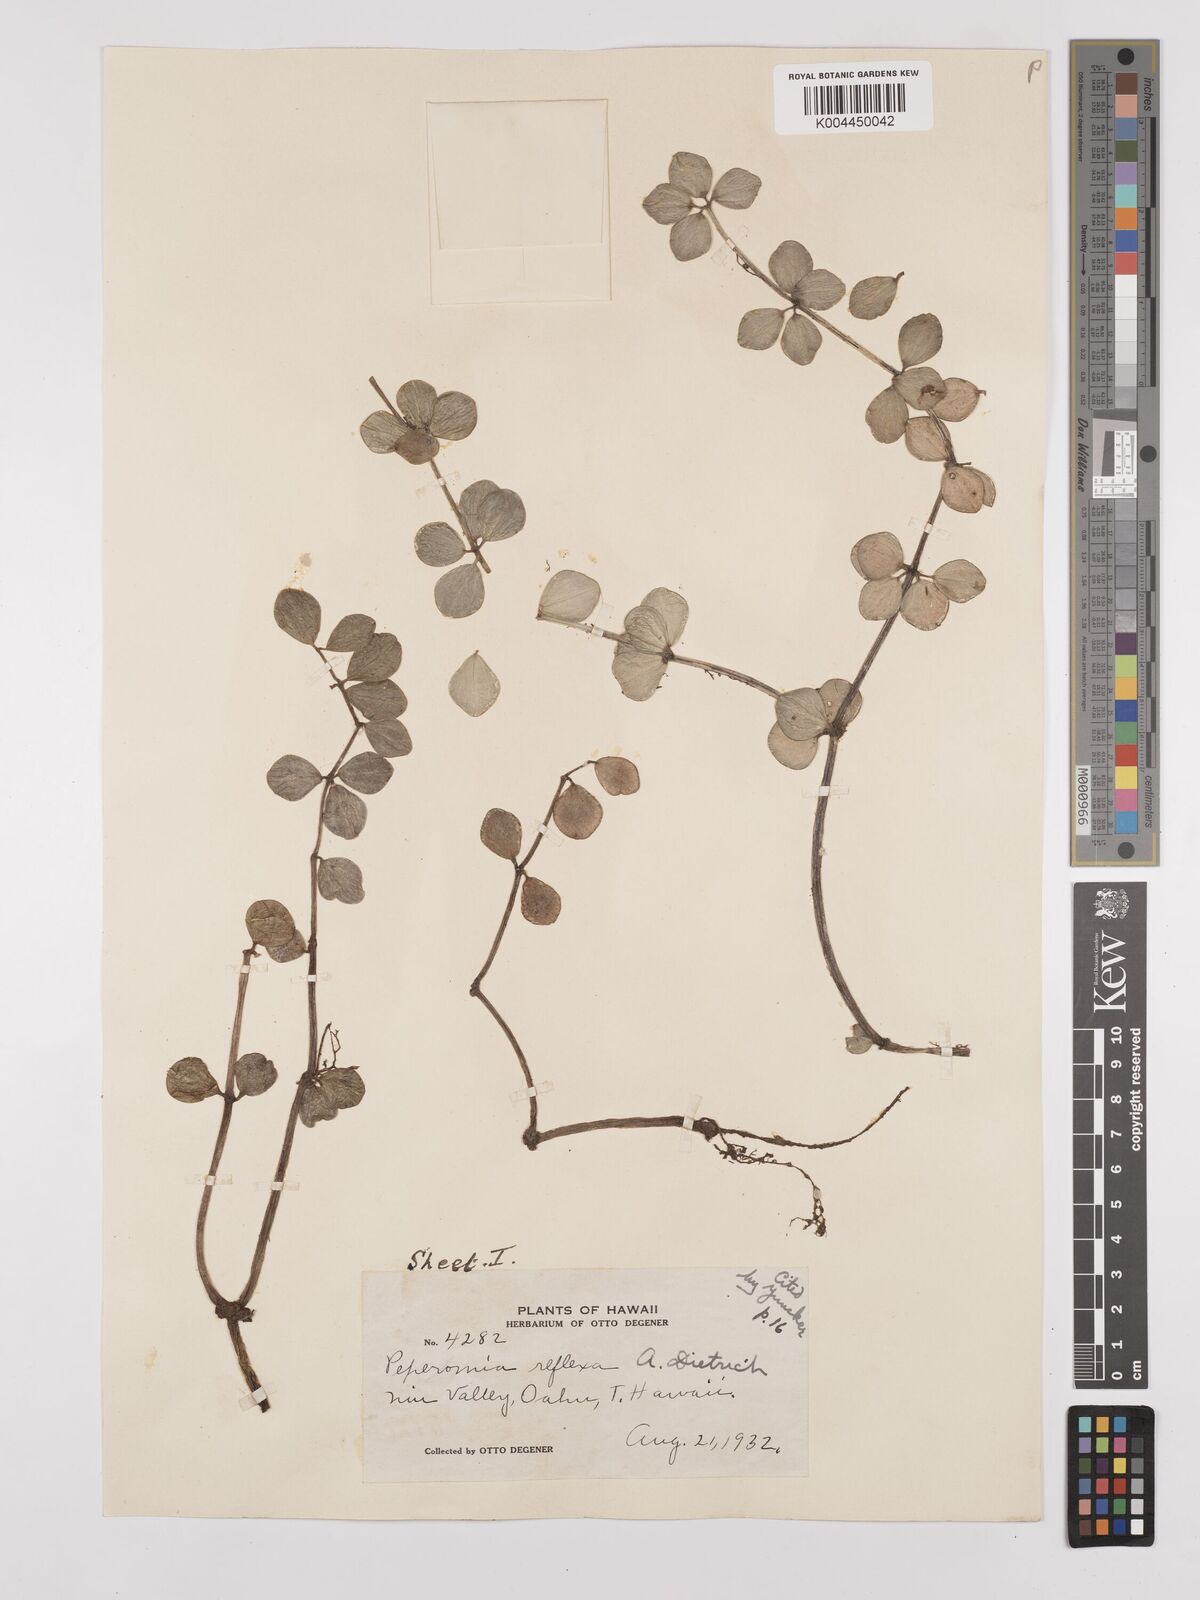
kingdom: Plantae
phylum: Tracheophyta
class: Magnoliopsida
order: Piperales
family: Piperaceae
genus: Peperomia
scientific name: Peperomia tetraphylla
